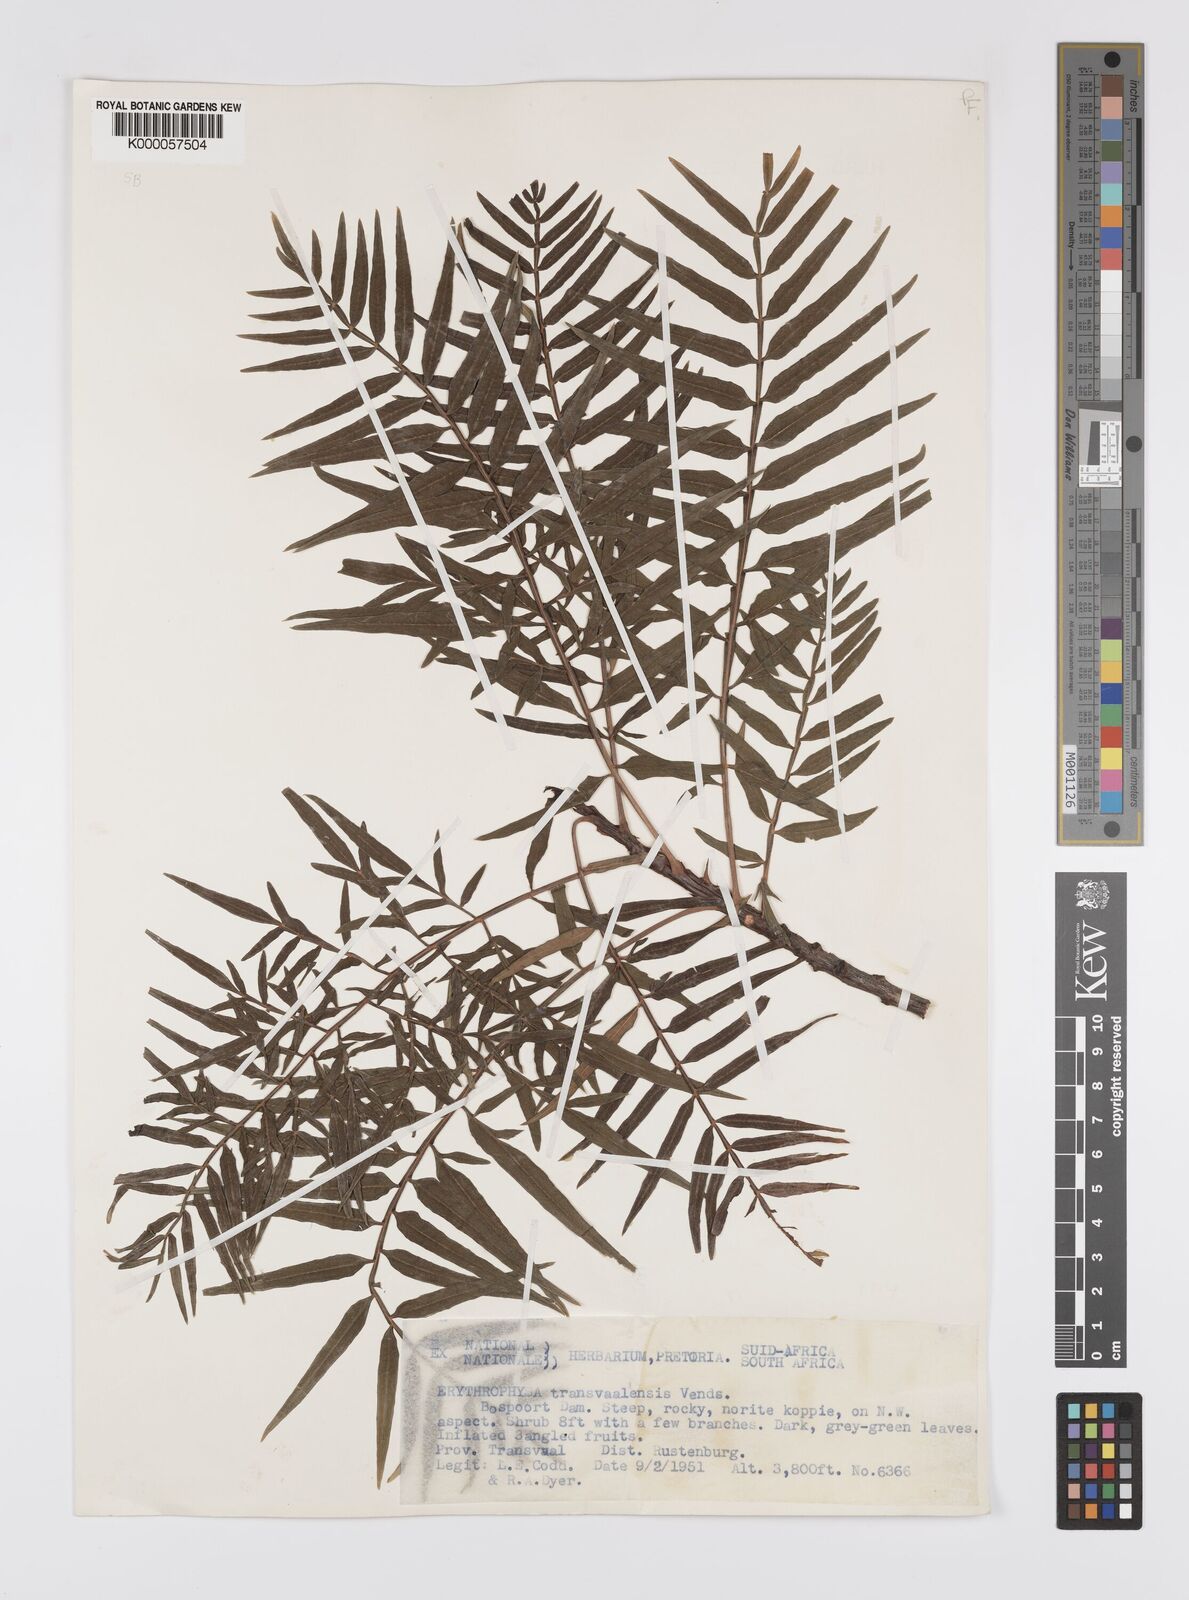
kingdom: Plantae
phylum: Tracheophyta
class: Magnoliopsida
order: Sapindales
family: Sapindaceae
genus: Erythrophysa
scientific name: Erythrophysa transvaalensis
